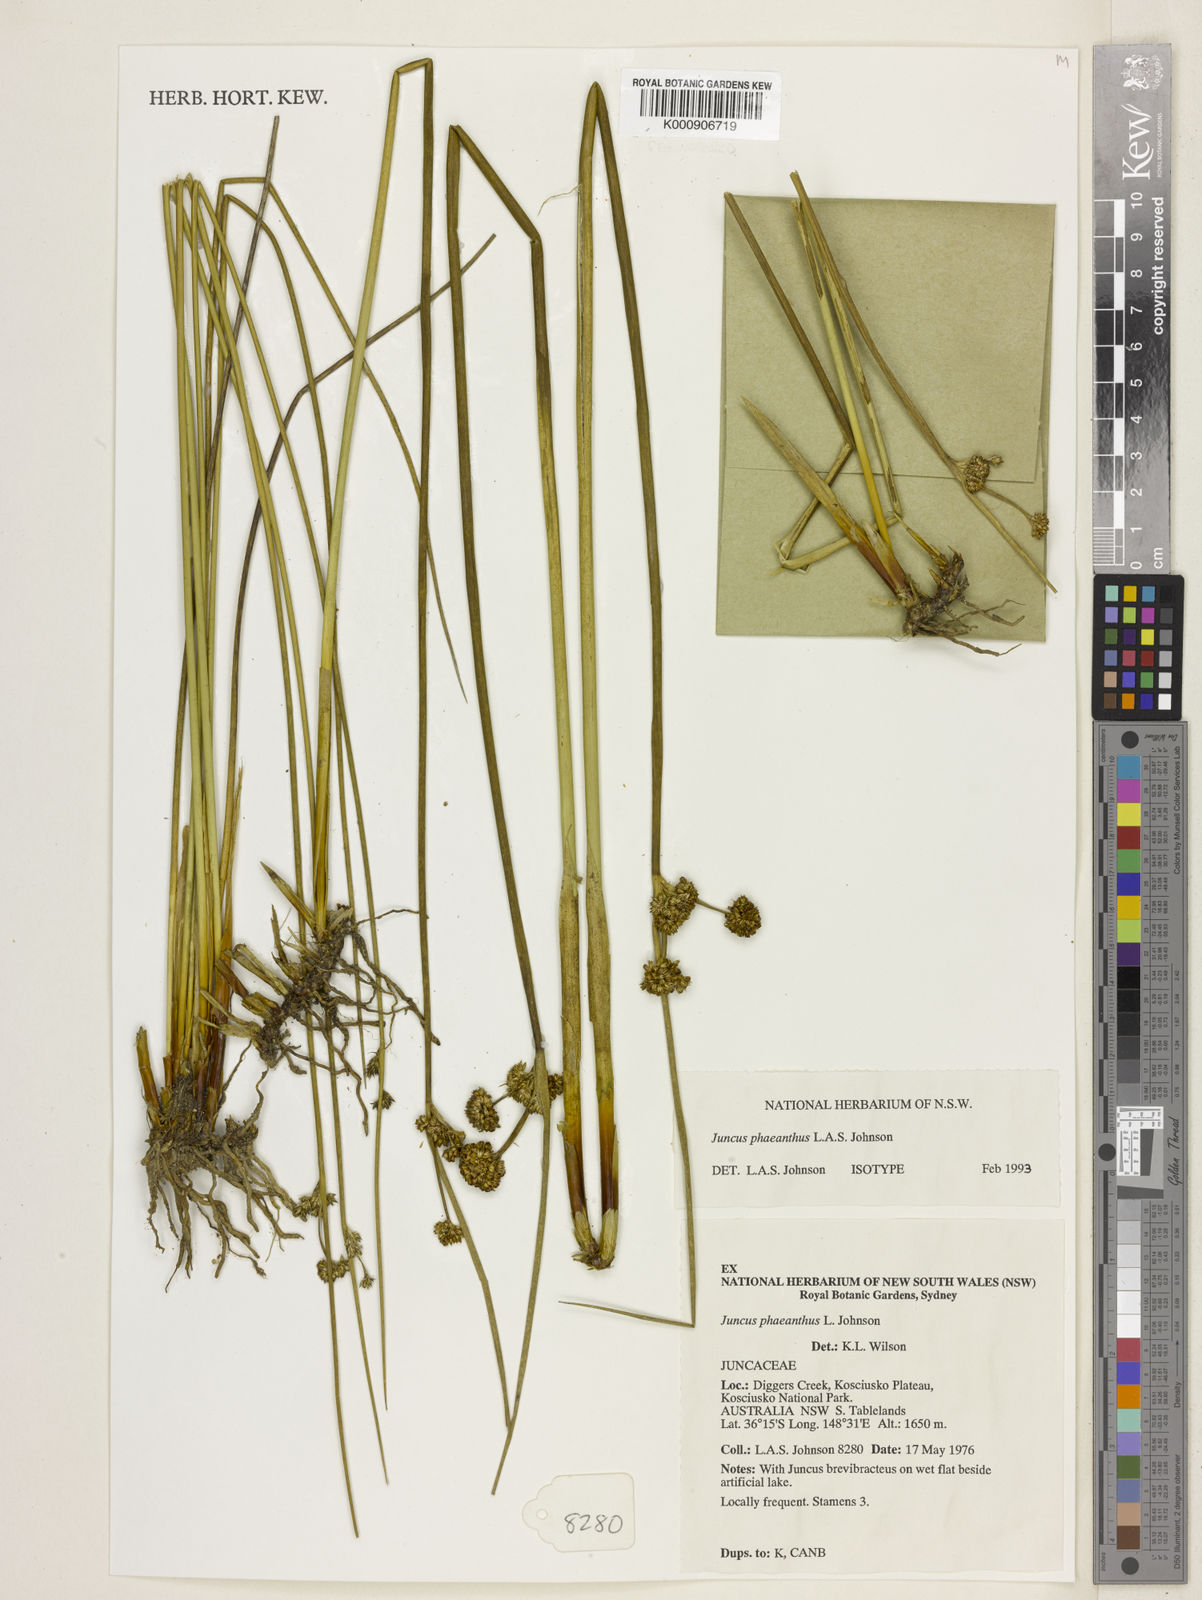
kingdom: Plantae
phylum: Tracheophyta
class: Liliopsida
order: Poales
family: Juncaceae
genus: Juncus
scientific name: Juncus phaeanthus
